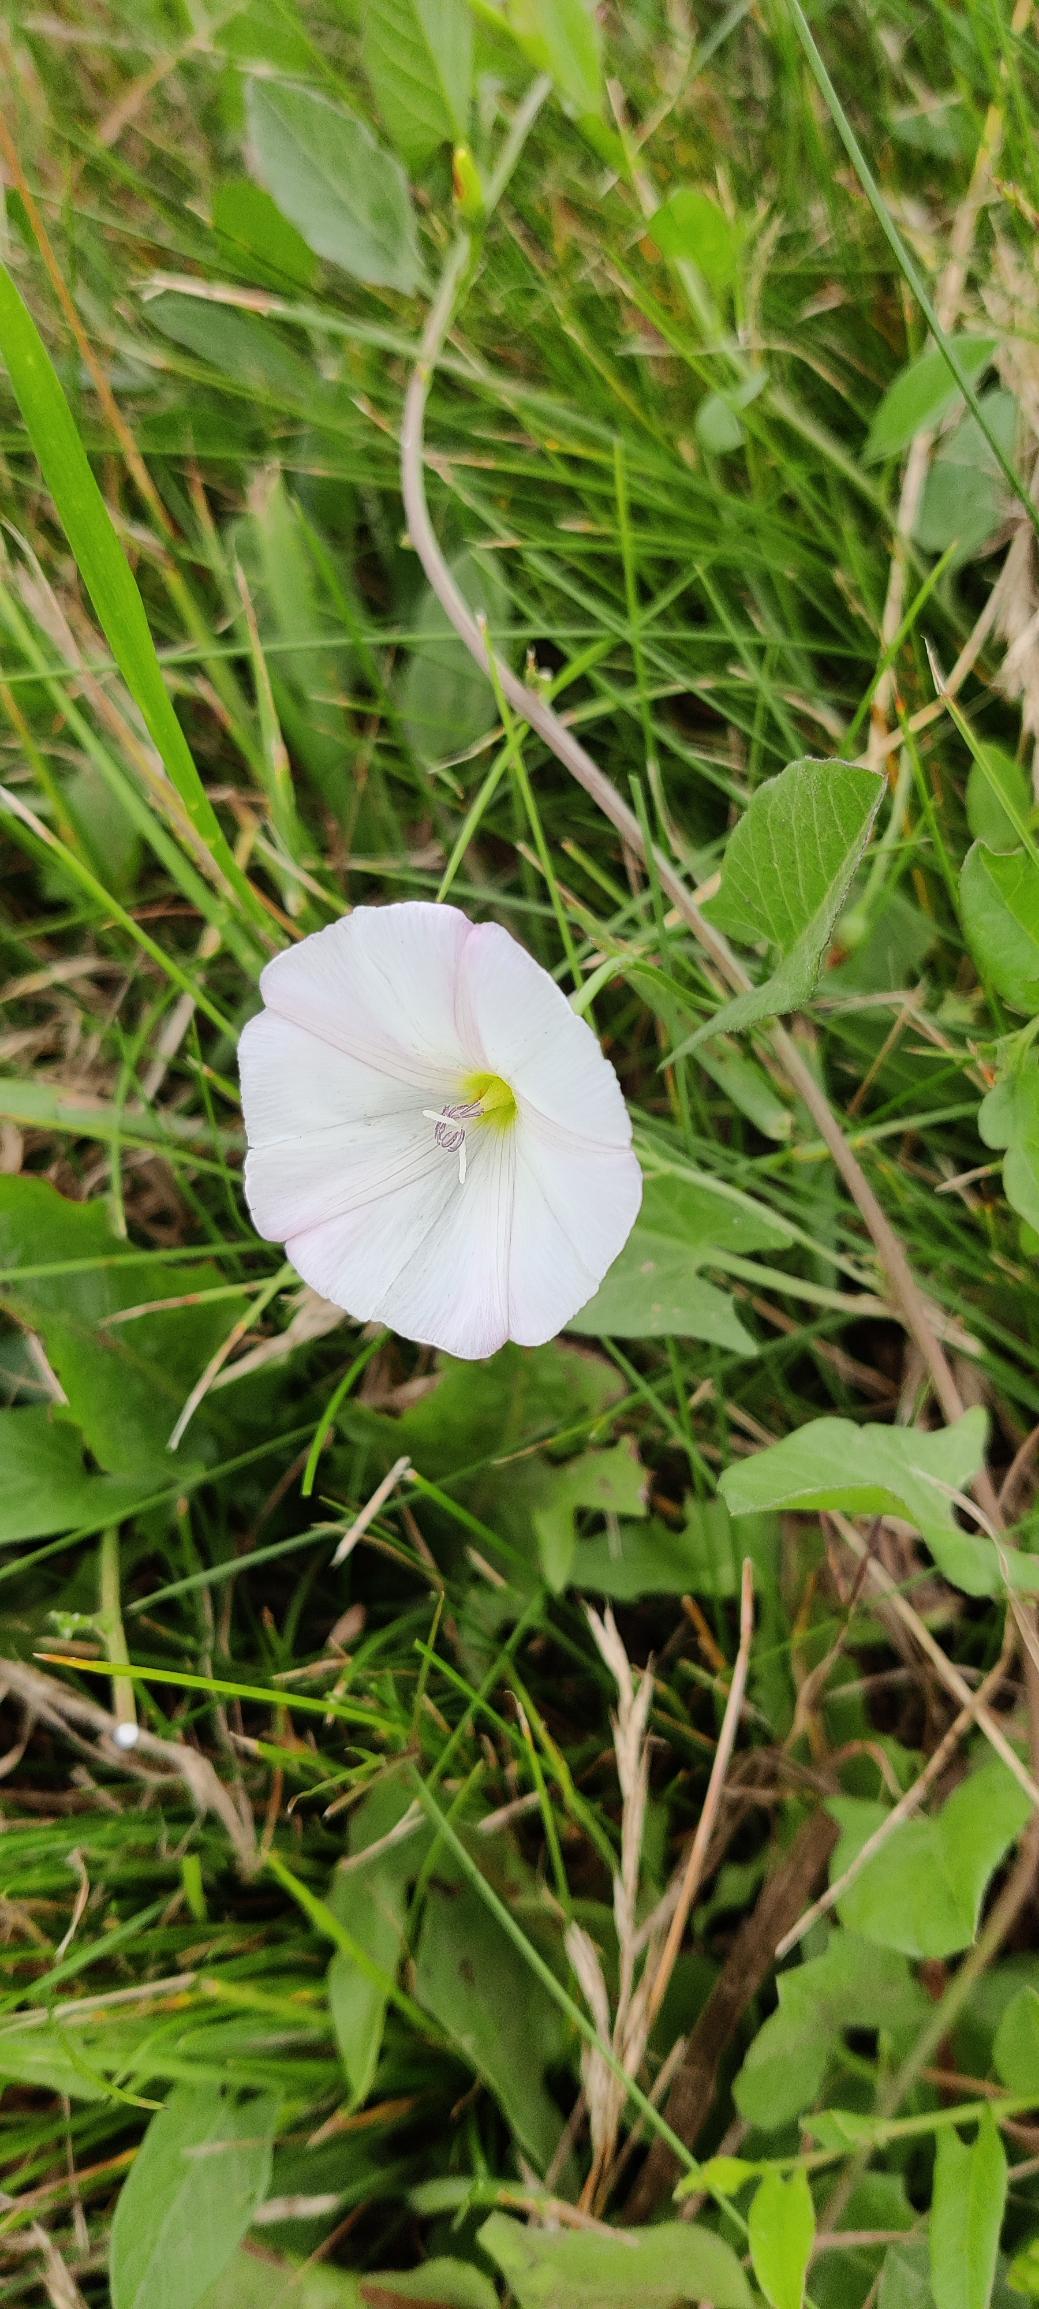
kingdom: Plantae
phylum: Tracheophyta
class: Magnoliopsida
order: Solanales
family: Convolvulaceae
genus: Convolvulus
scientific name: Convolvulus arvensis
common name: Ager-snerle
